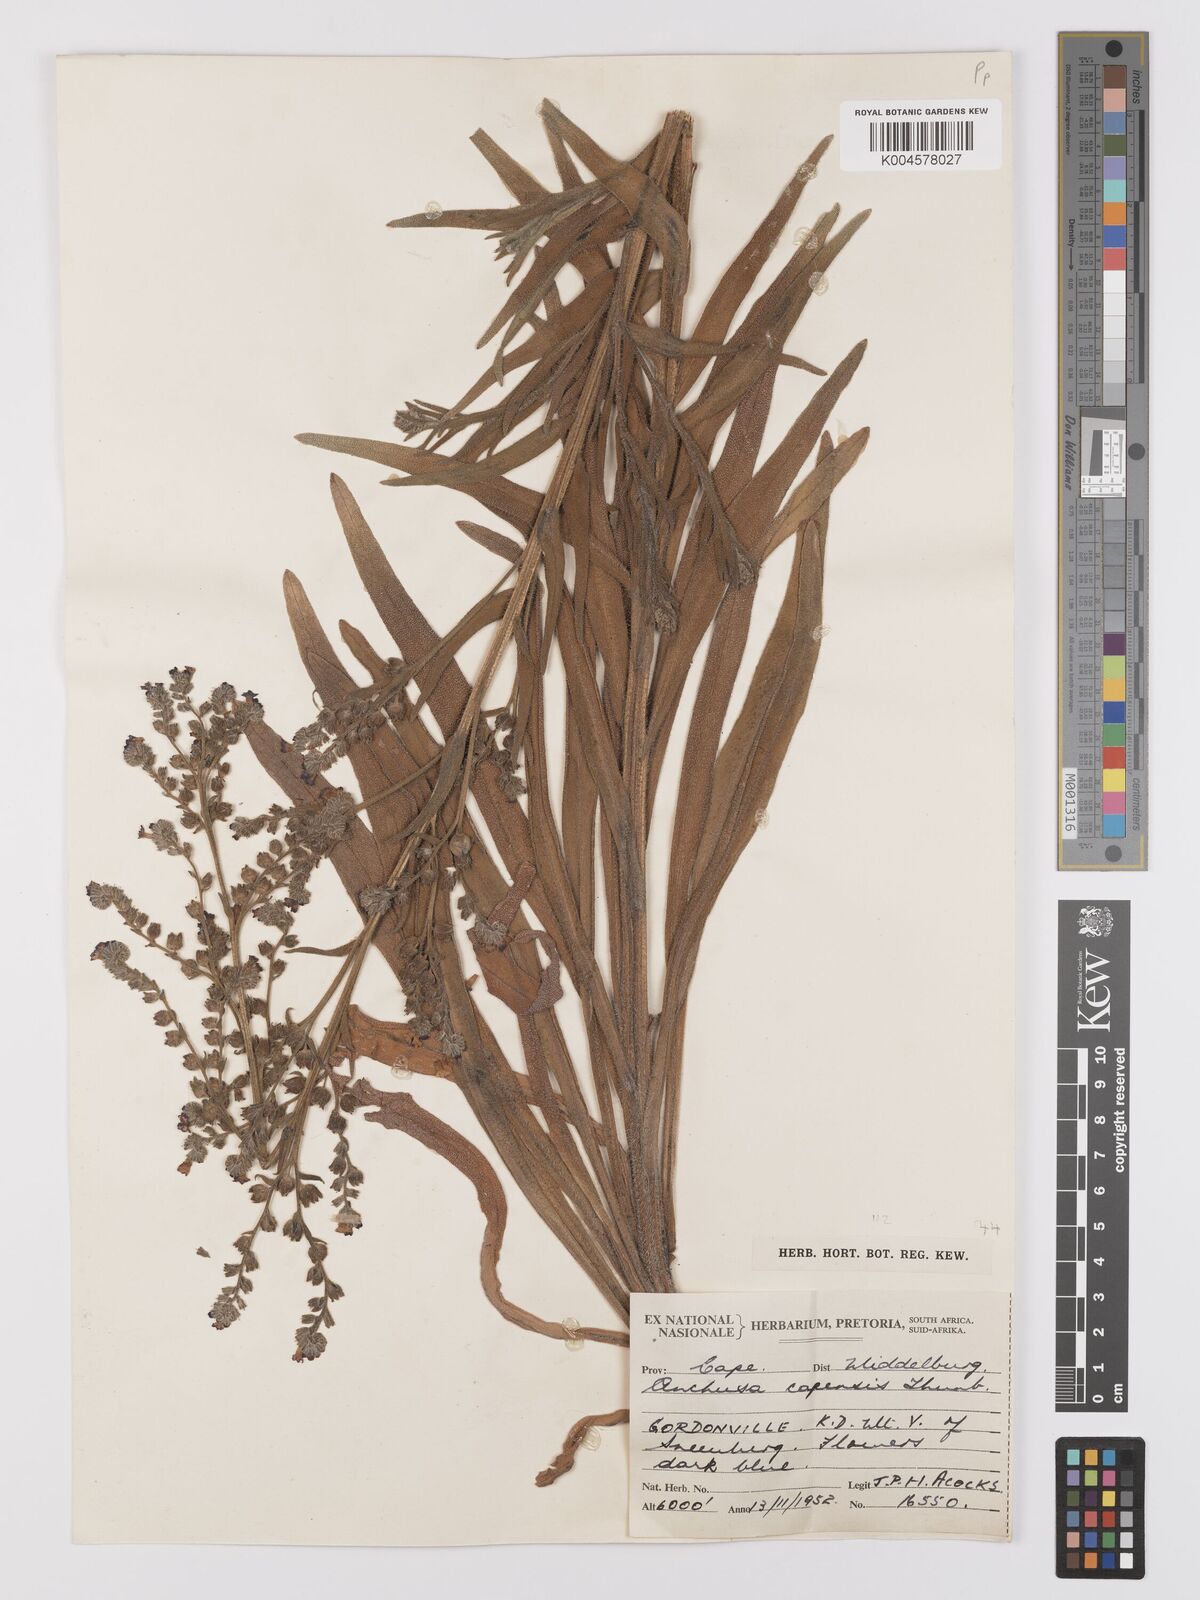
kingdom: Plantae
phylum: Tracheophyta
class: Magnoliopsida
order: Boraginales
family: Boraginaceae
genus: Anchusa
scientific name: Anchusa capensis
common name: Cape bugloss
